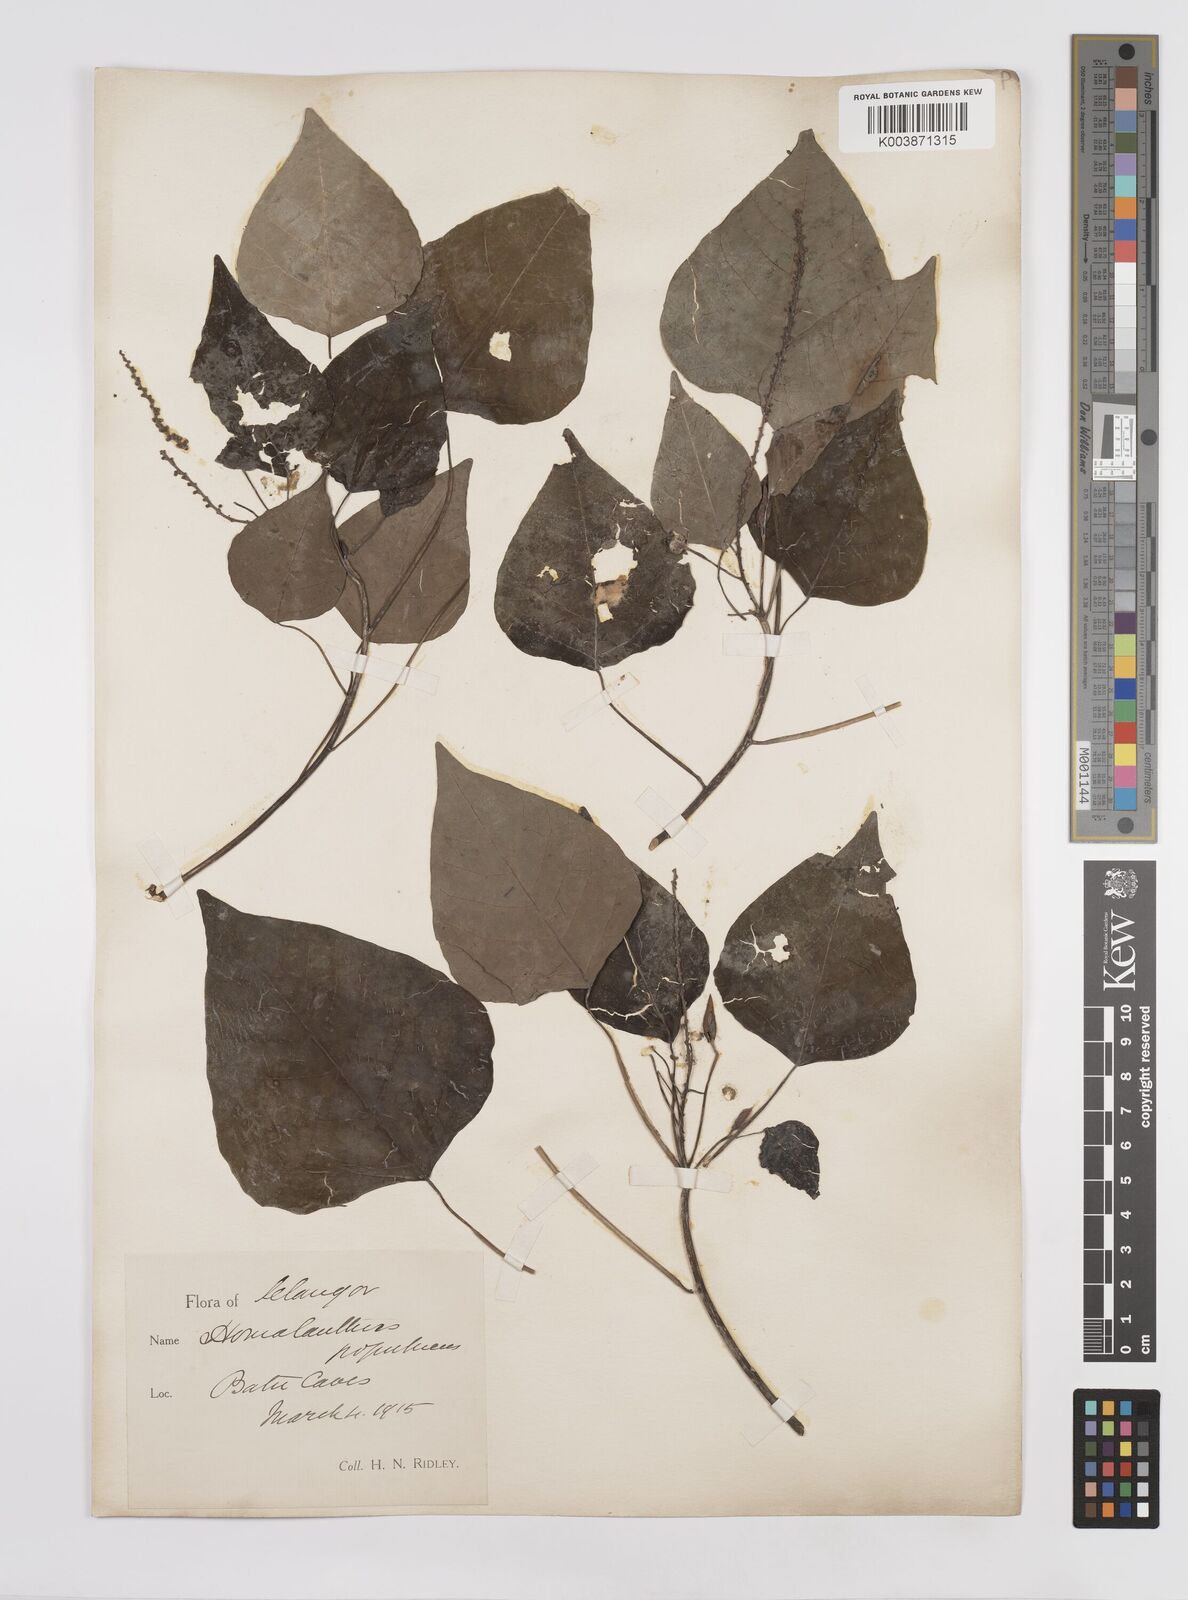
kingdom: Plantae
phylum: Tracheophyta
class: Magnoliopsida
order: Malpighiales
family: Euphorbiaceae
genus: Homalanthus
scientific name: Homalanthus populneus
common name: Spurge
